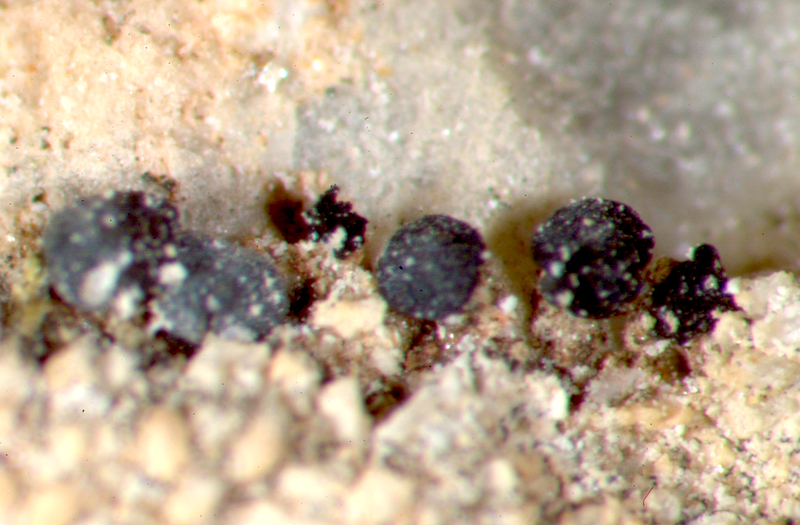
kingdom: Fungi
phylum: Ascomycota
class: Lecanoromycetes
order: Lecanorales
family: Lecanoraceae
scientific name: Lecanoraceae
